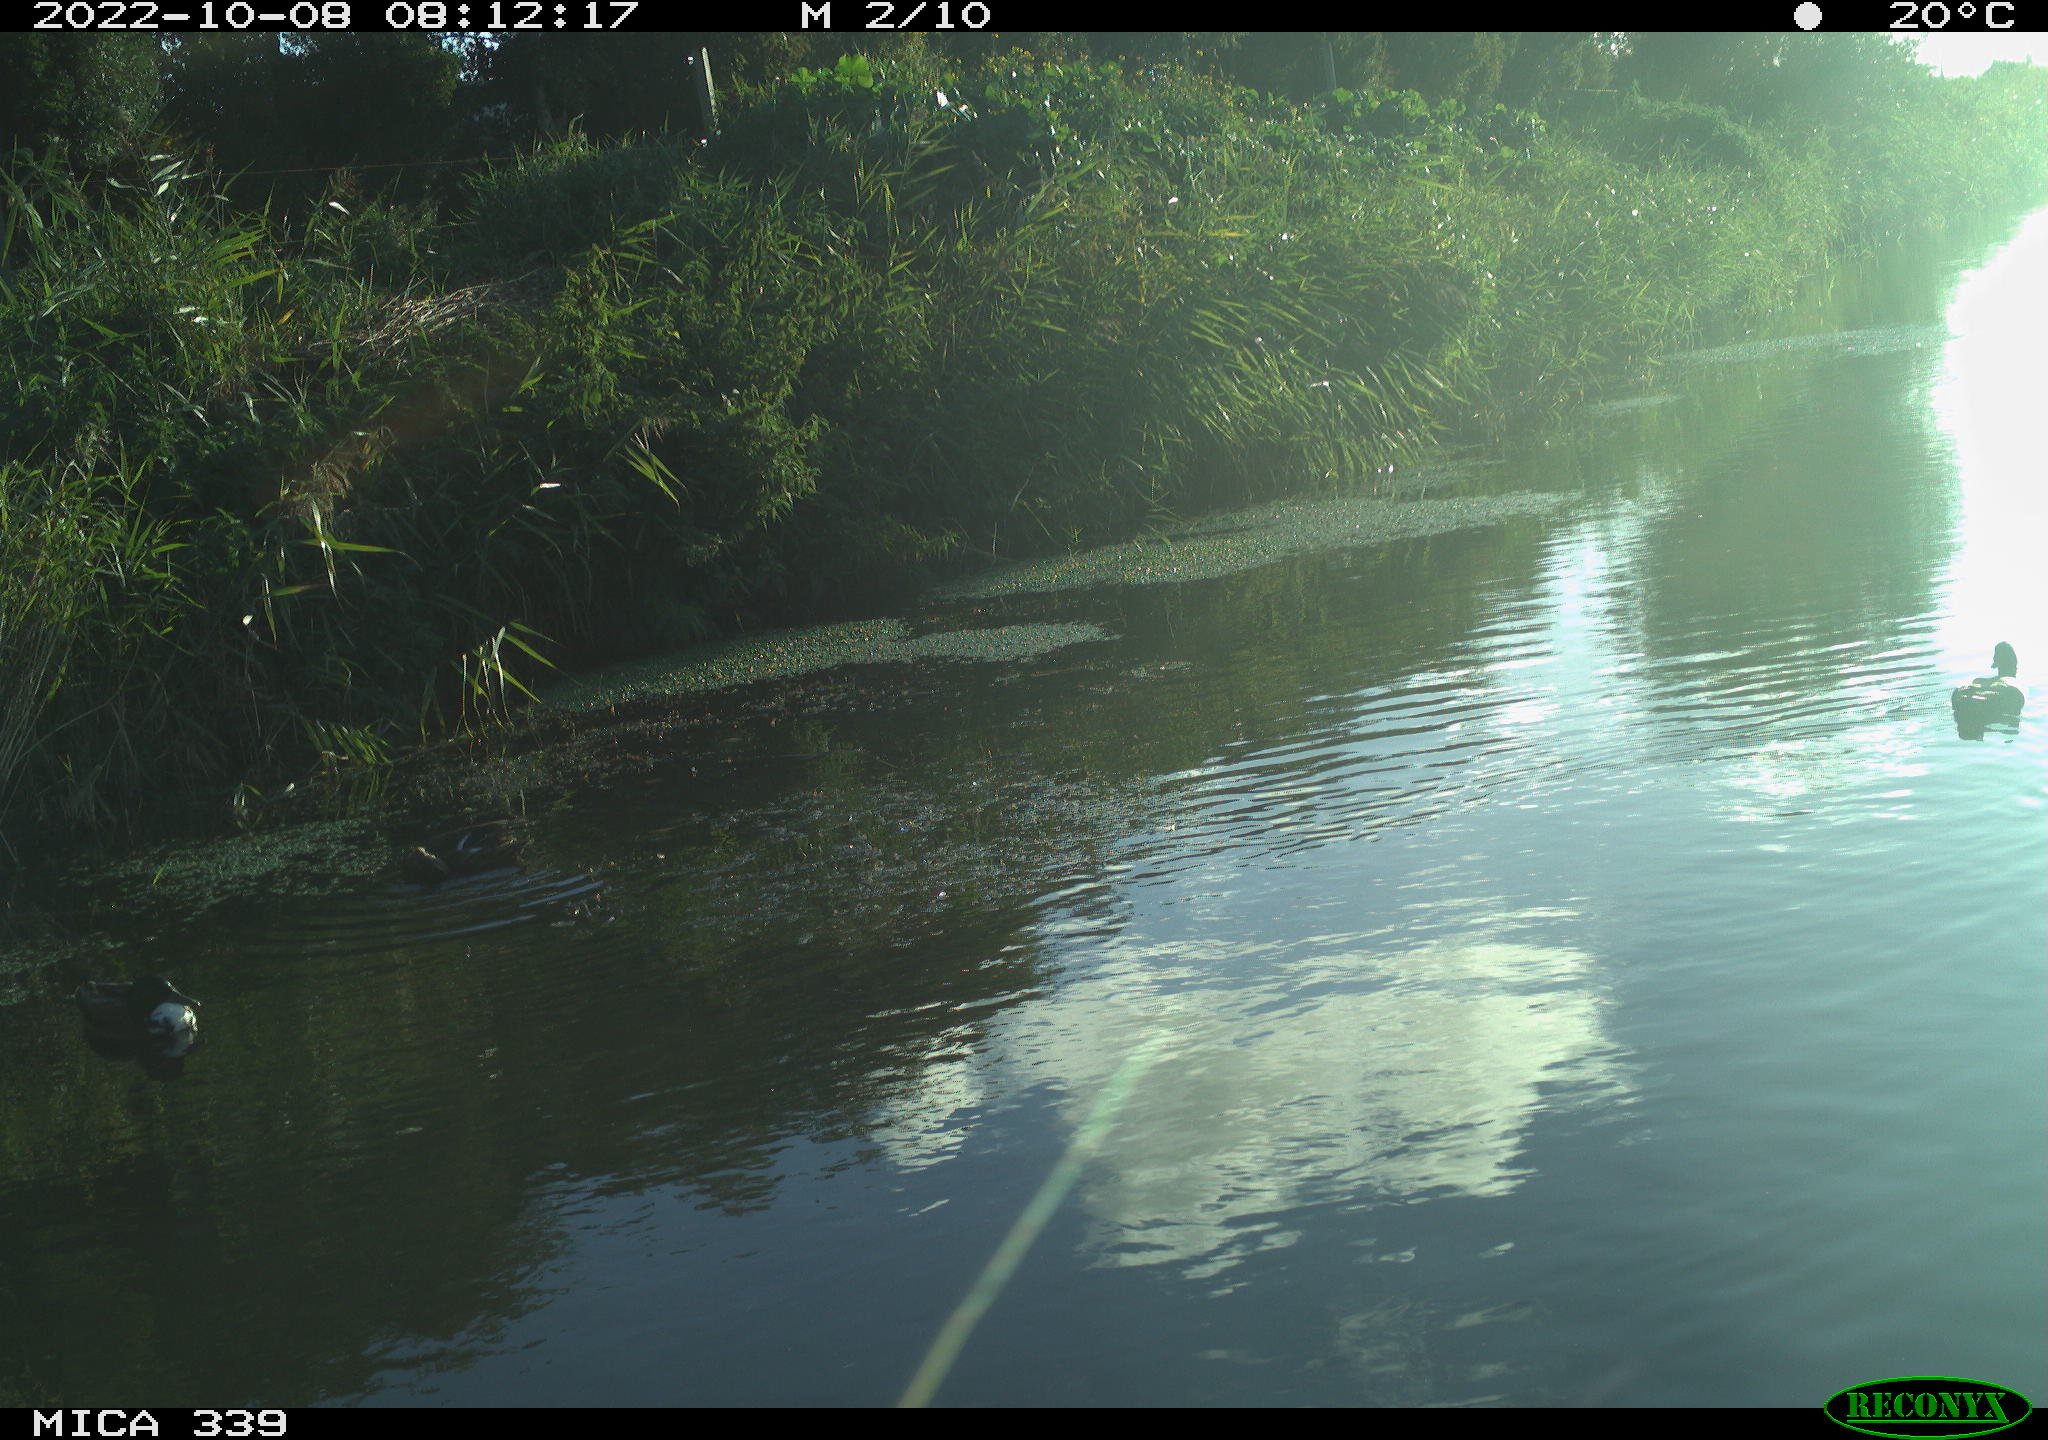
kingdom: Animalia
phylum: Chordata
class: Aves
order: Anseriformes
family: Anatidae
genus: Anas
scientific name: Anas platyrhynchos
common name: Mallard
